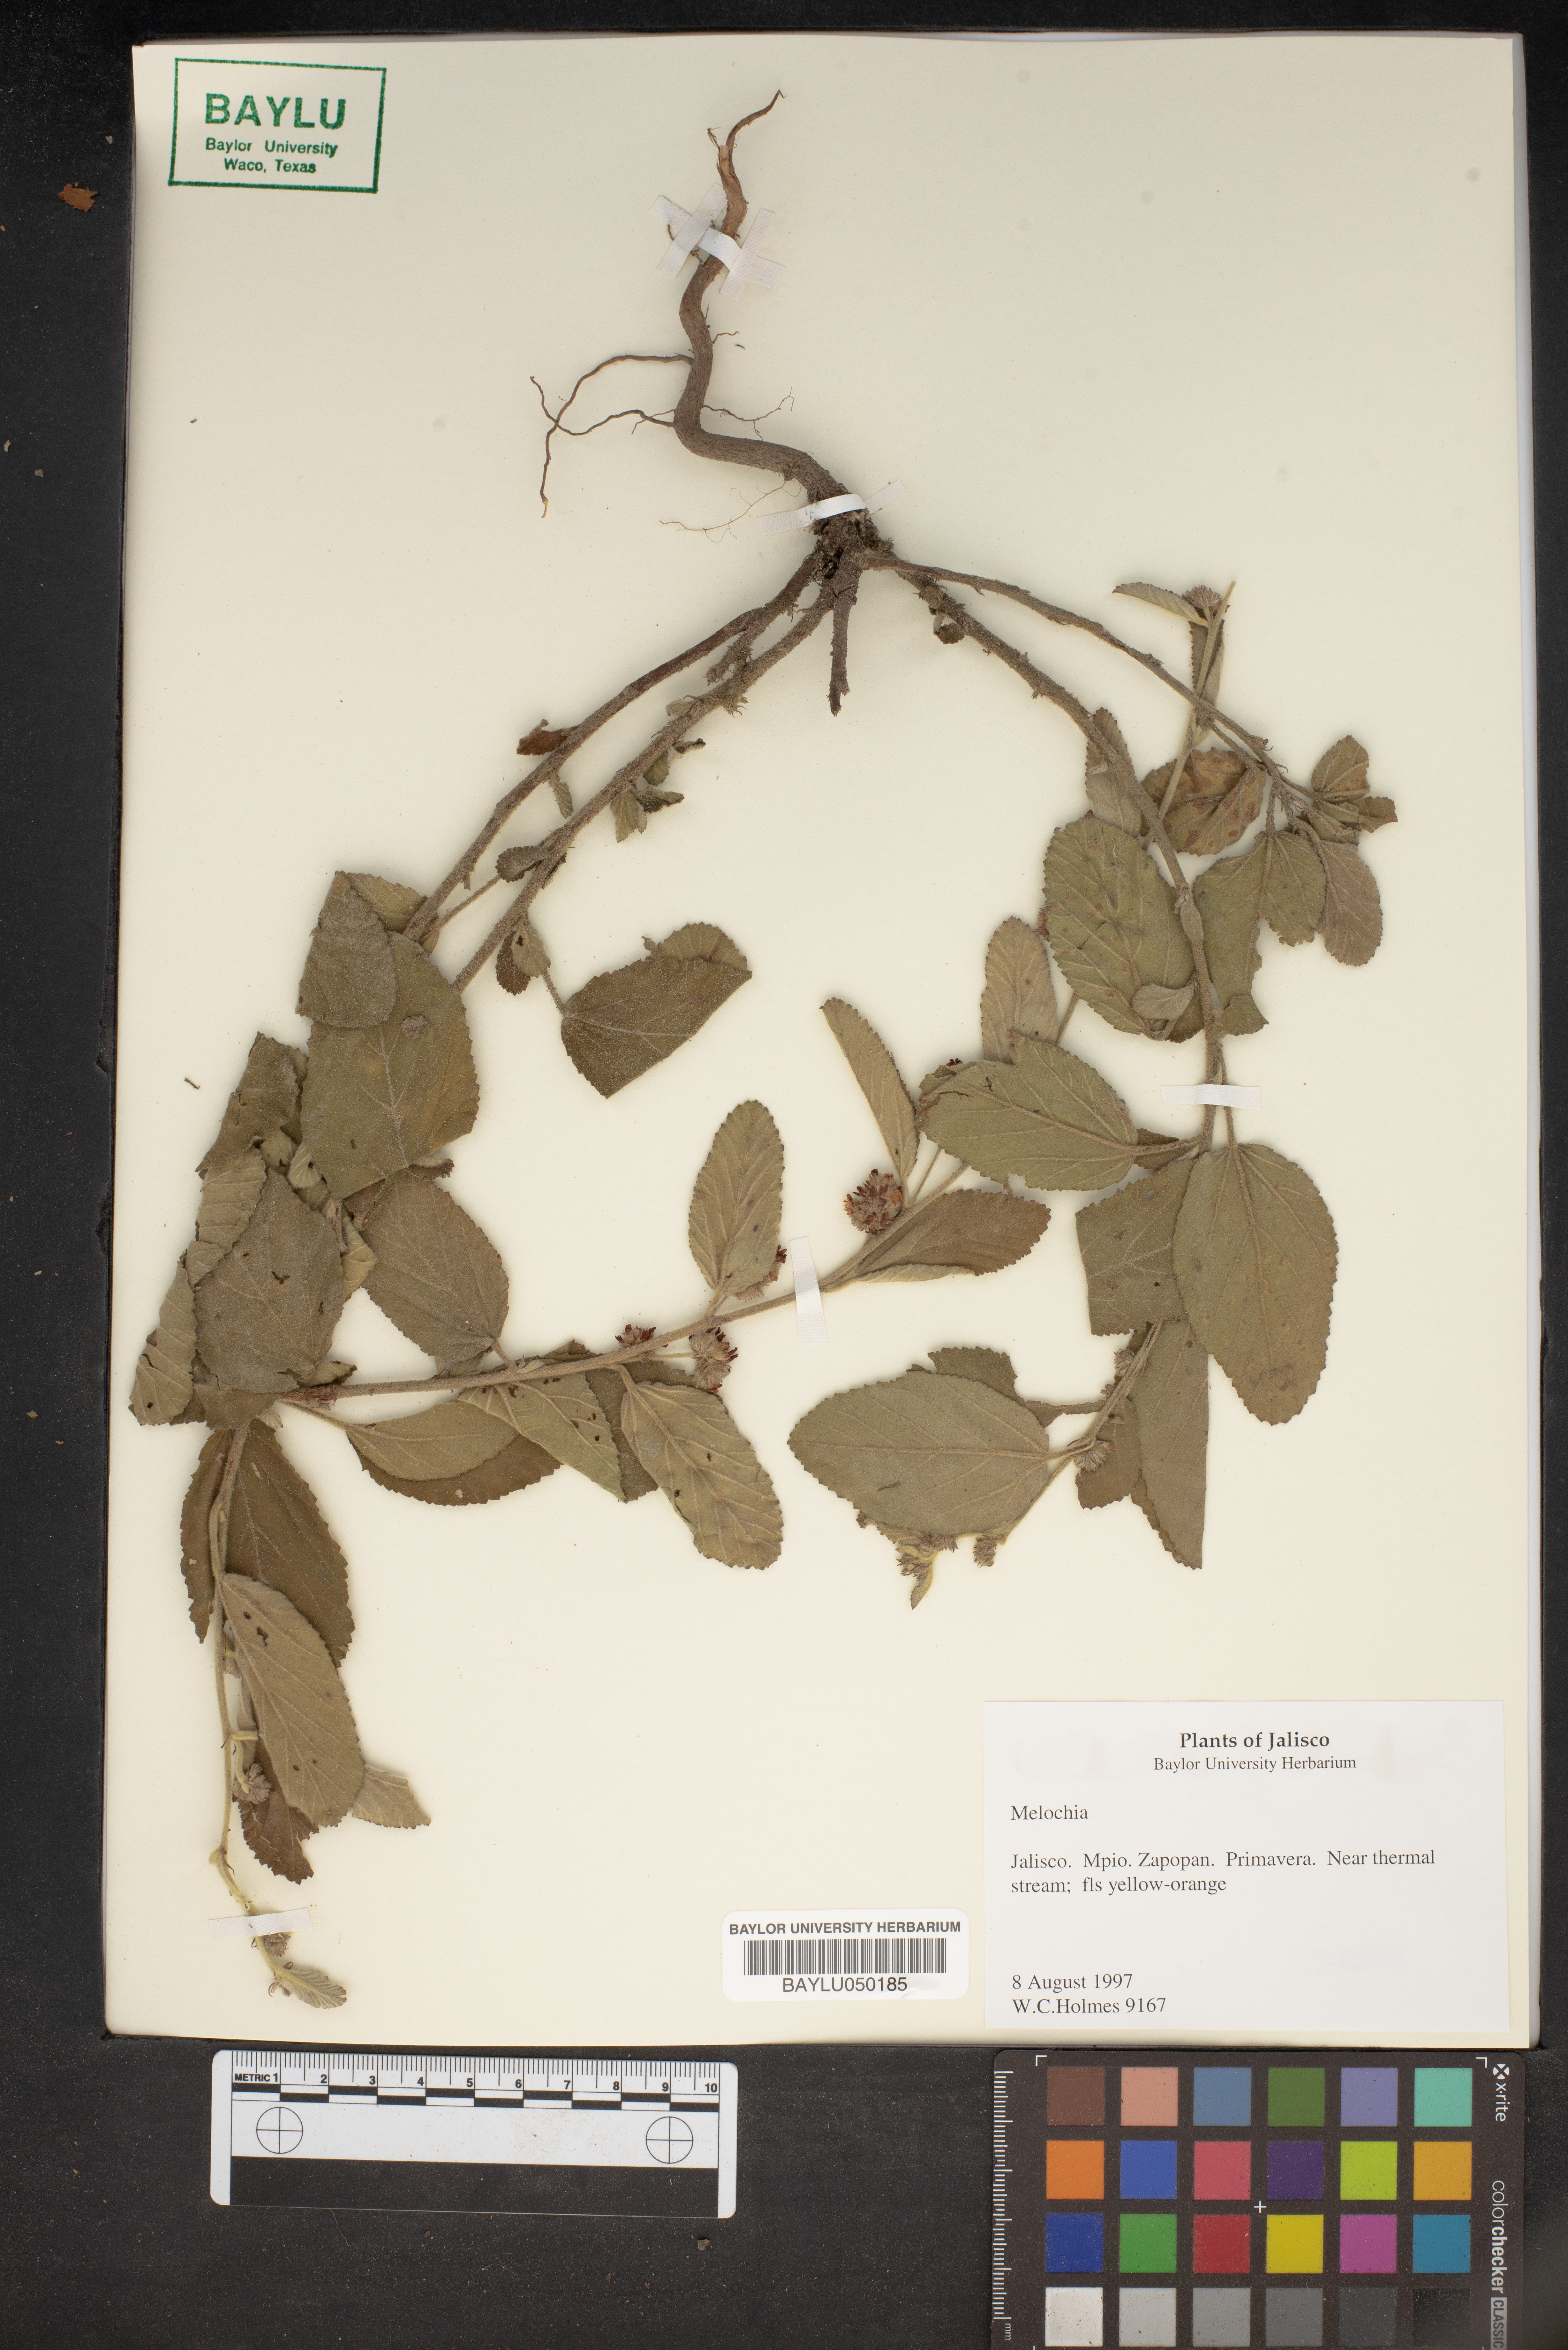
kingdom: Plantae
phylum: Tracheophyta
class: Magnoliopsida
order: Malvales
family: Malvaceae
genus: Melochia
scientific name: Melochia
